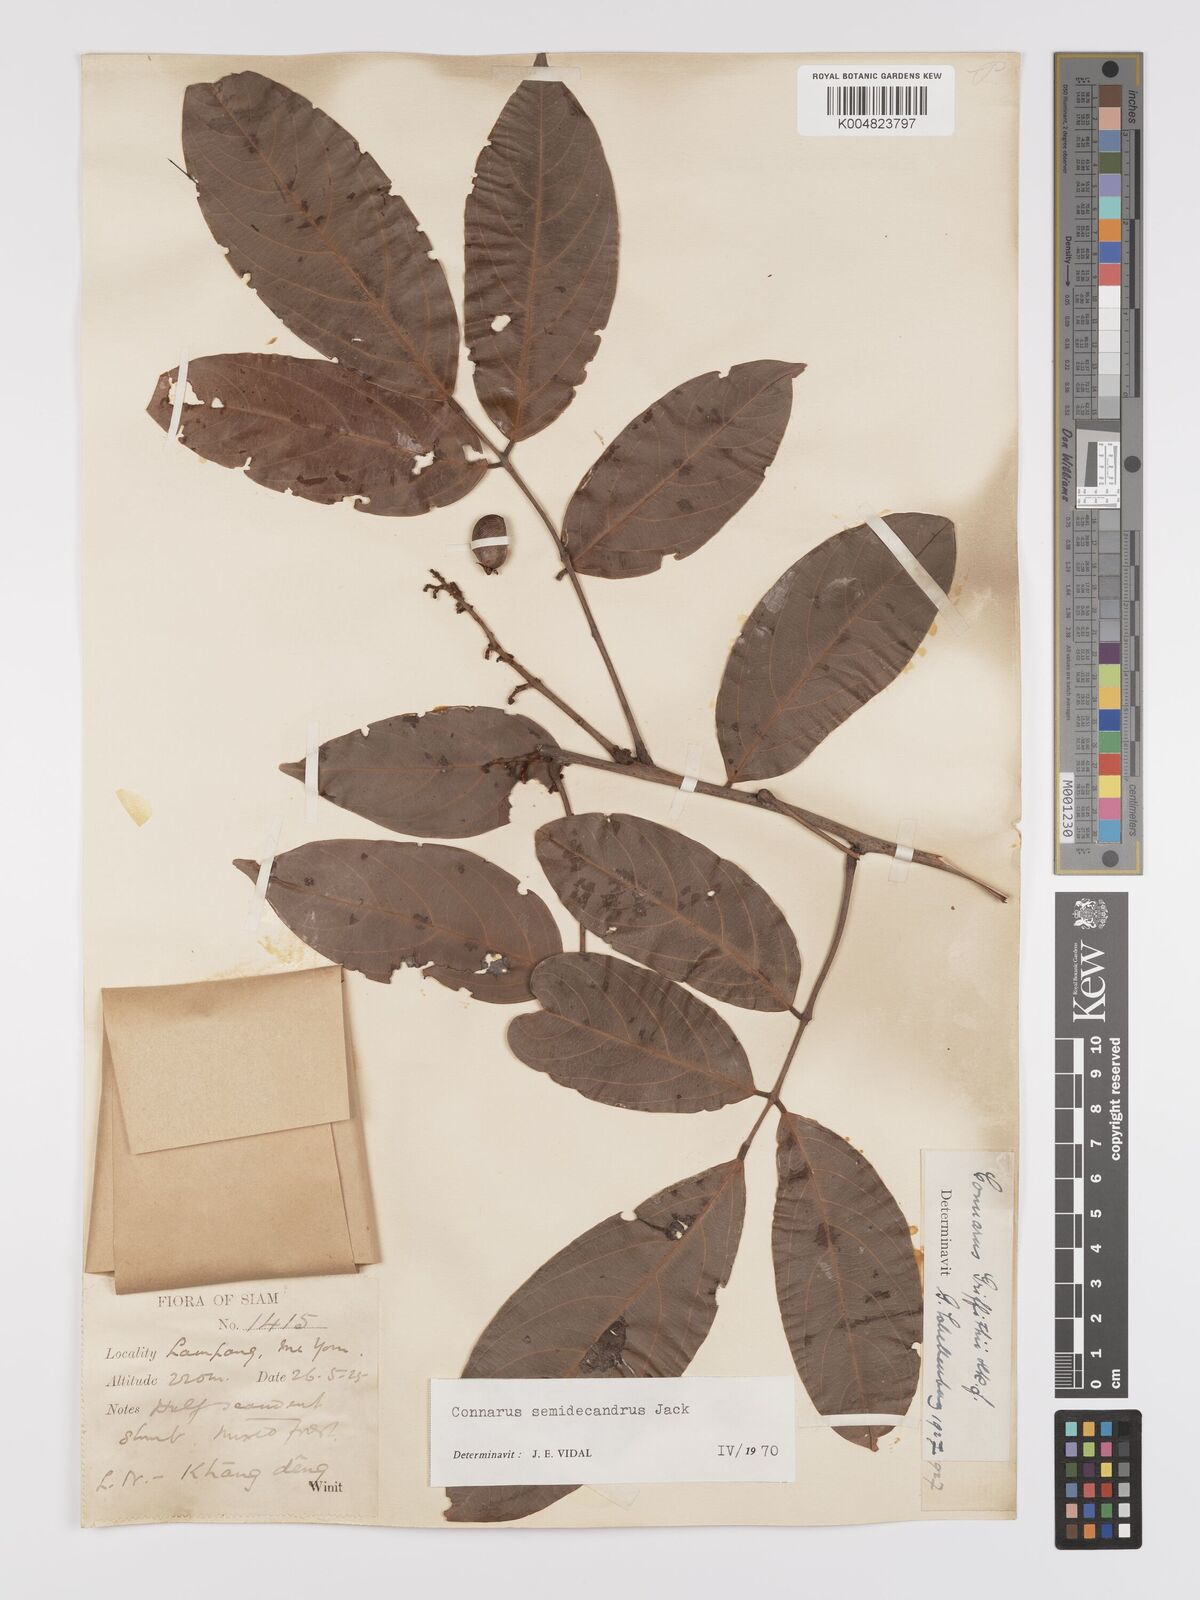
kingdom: Plantae
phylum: Tracheophyta
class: Magnoliopsida
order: Oxalidales
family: Connaraceae
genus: Connarus
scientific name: Connarus semidecandrus
